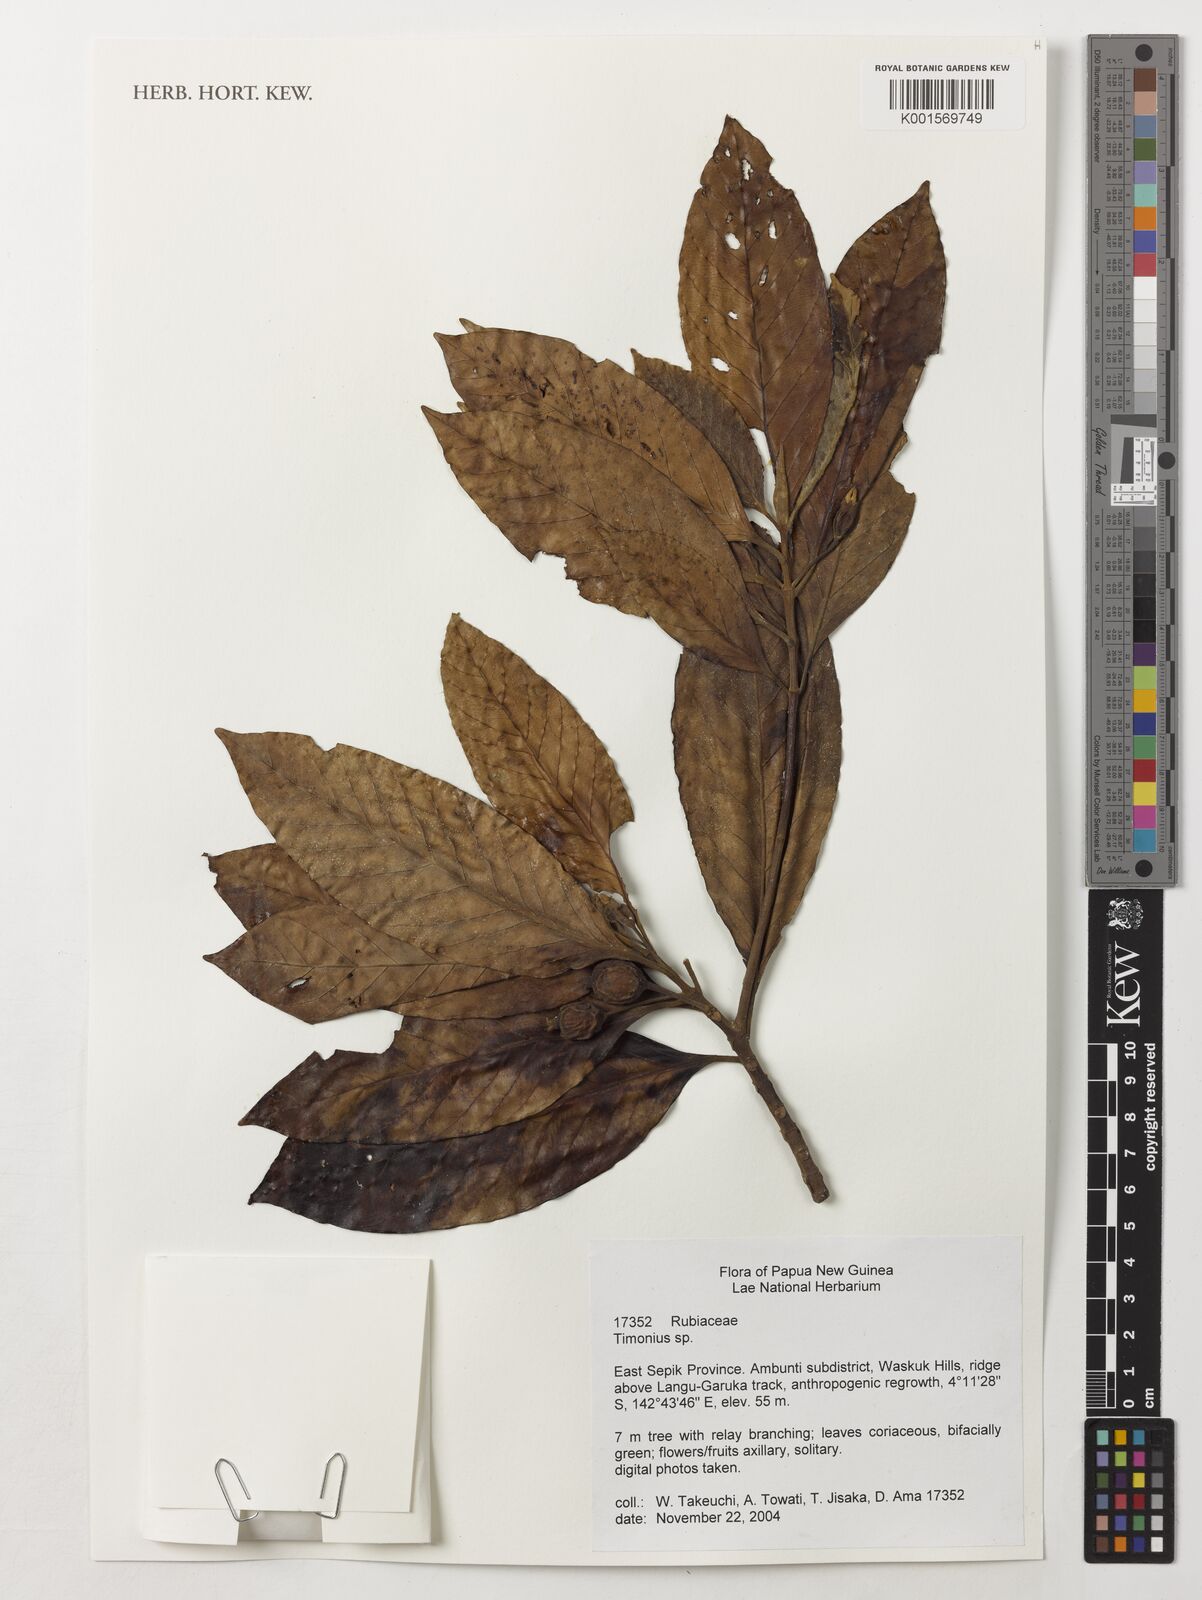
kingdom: Plantae
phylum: Tracheophyta
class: Magnoliopsida
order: Gentianales
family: Rubiaceae
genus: Timonius
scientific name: Timonius
